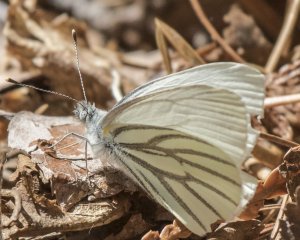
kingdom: Animalia
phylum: Arthropoda
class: Insecta
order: Lepidoptera
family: Pieridae
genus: Pieris
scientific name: Pieris oleracea
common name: Mustard White
